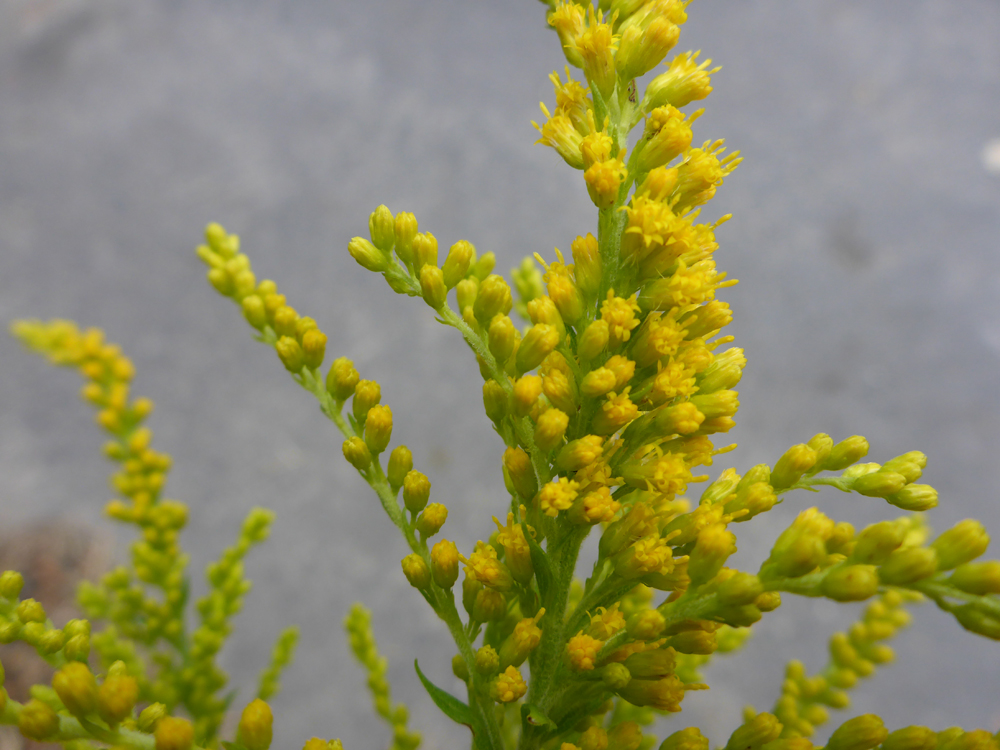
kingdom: Plantae
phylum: Tracheophyta
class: Magnoliopsida
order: Asterales
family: Asteraceae
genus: Solidago
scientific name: Solidago canadensis
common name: Canada goldenrod
